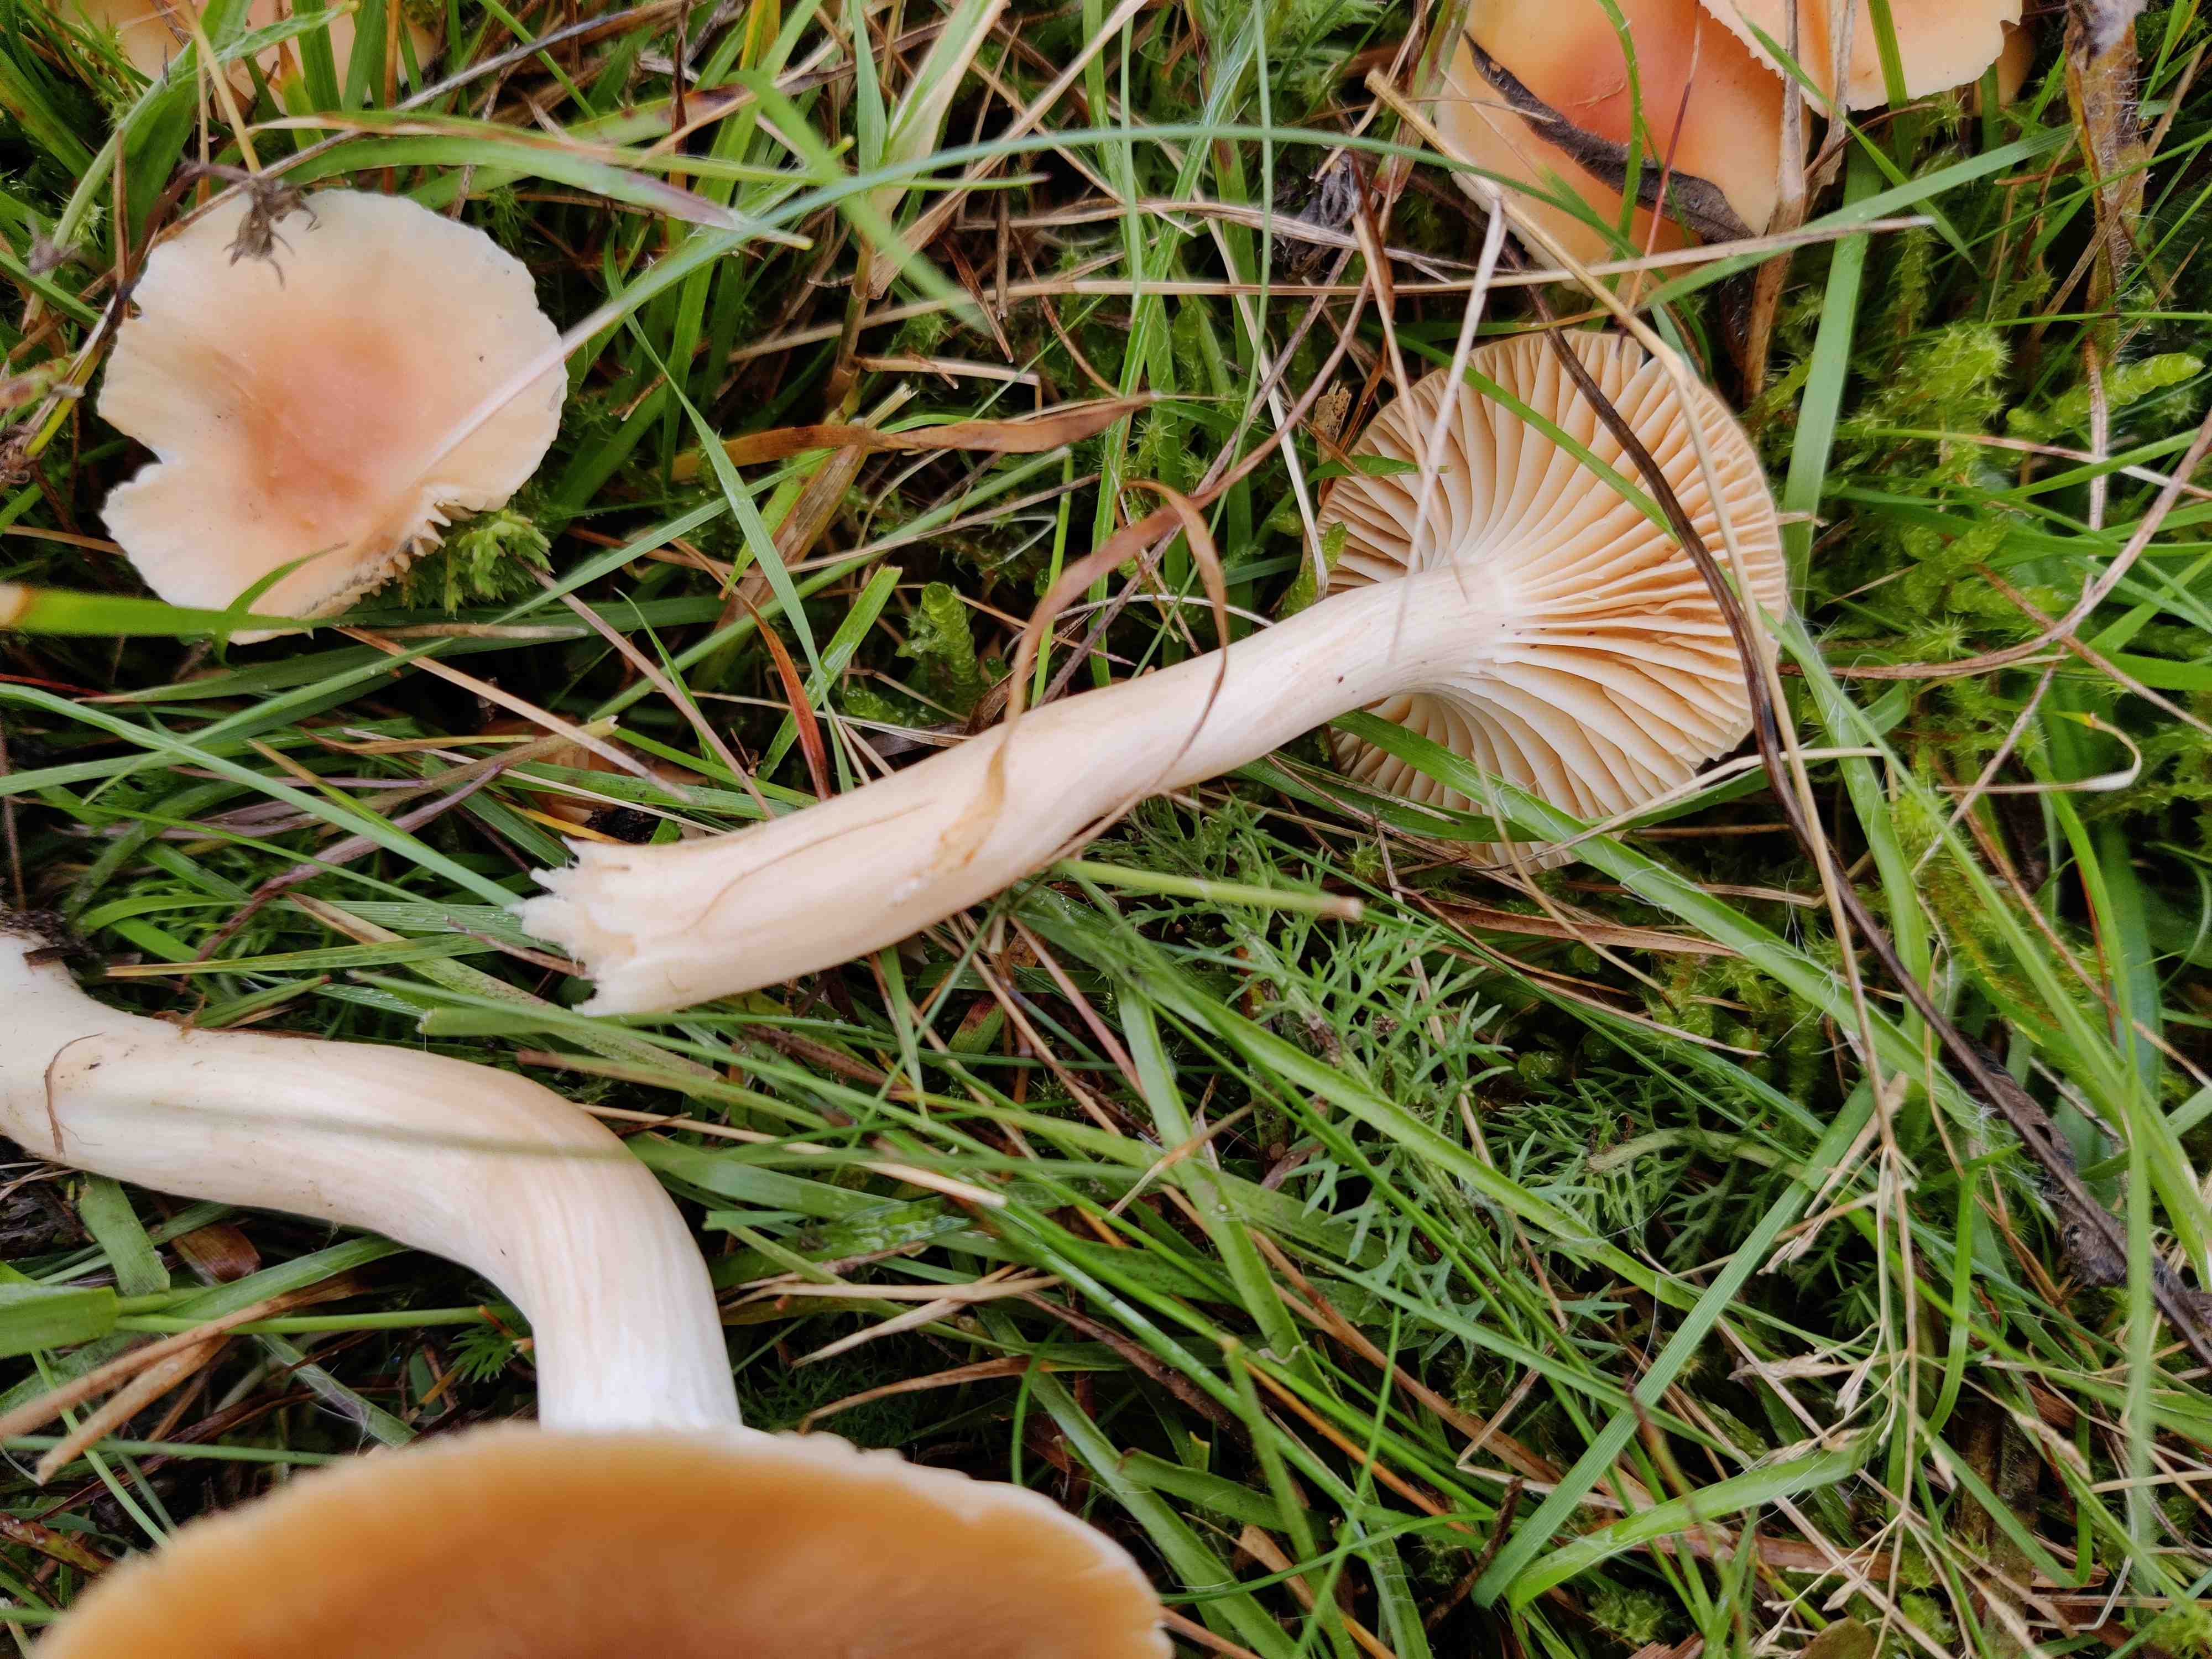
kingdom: Fungi
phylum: Basidiomycota
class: Agaricomycetes
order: Agaricales
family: Hygrophoraceae
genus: Cuphophyllus
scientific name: Cuphophyllus pratensis
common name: eng-vokshat
